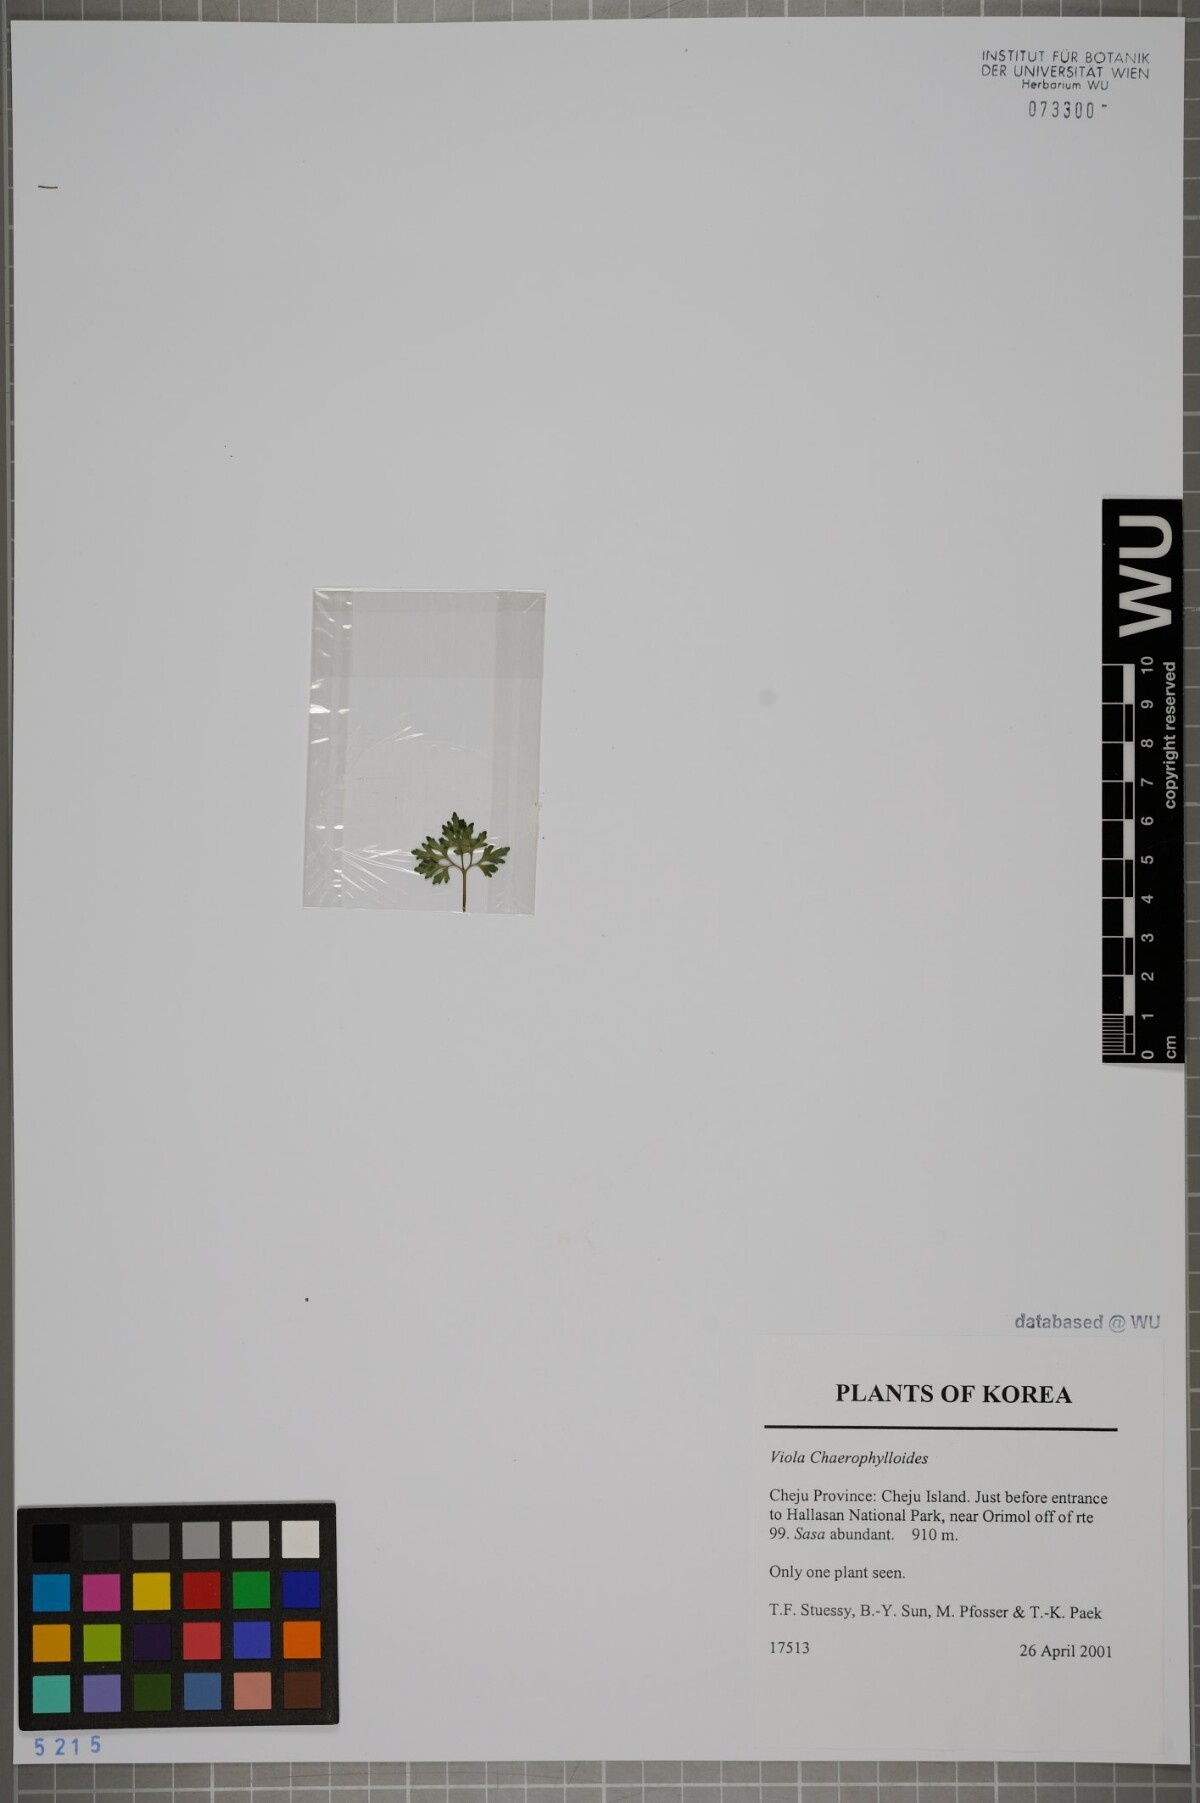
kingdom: Plantae
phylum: Tracheophyta
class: Magnoliopsida
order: Malpighiales
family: Violaceae
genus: Viola
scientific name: Viola albida
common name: Korean violet
